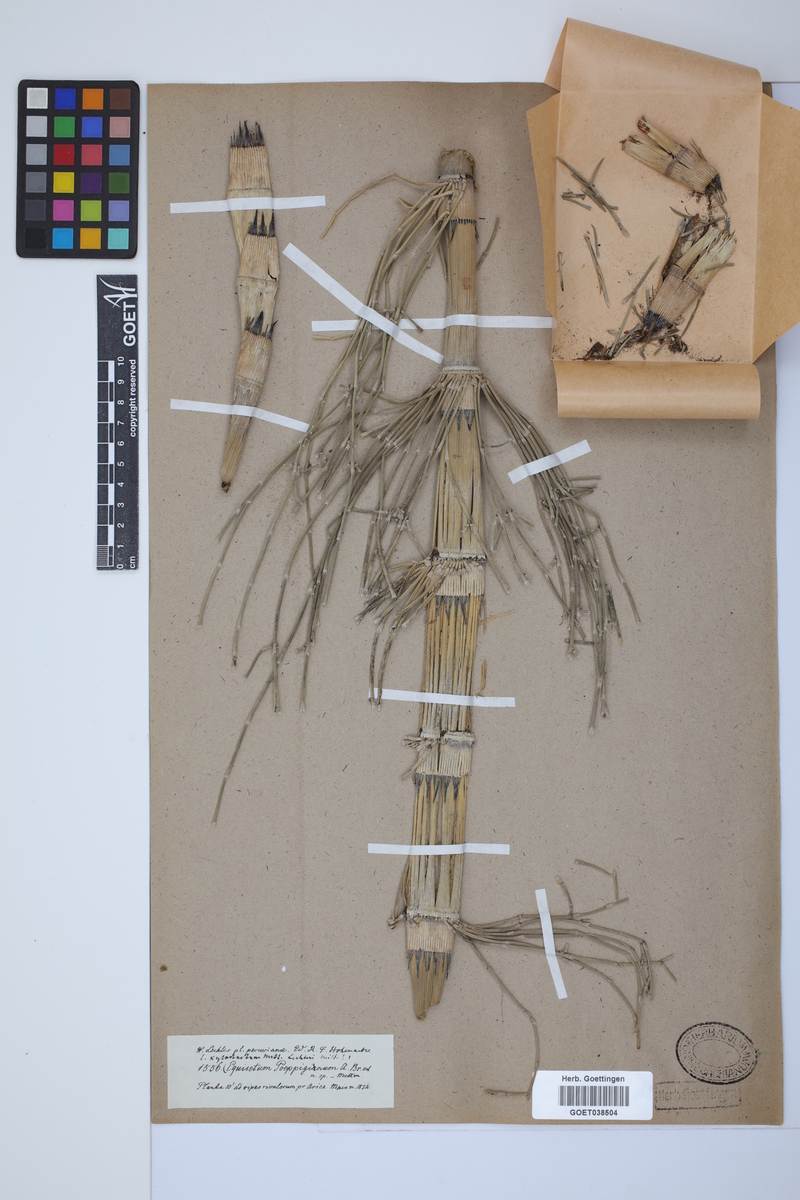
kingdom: Plantae
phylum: Tracheophyta
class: Polypodiopsida
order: Equisetales
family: Equisetaceae
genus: Equisetum
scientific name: Equisetum giganteum
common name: Giant horsetail
